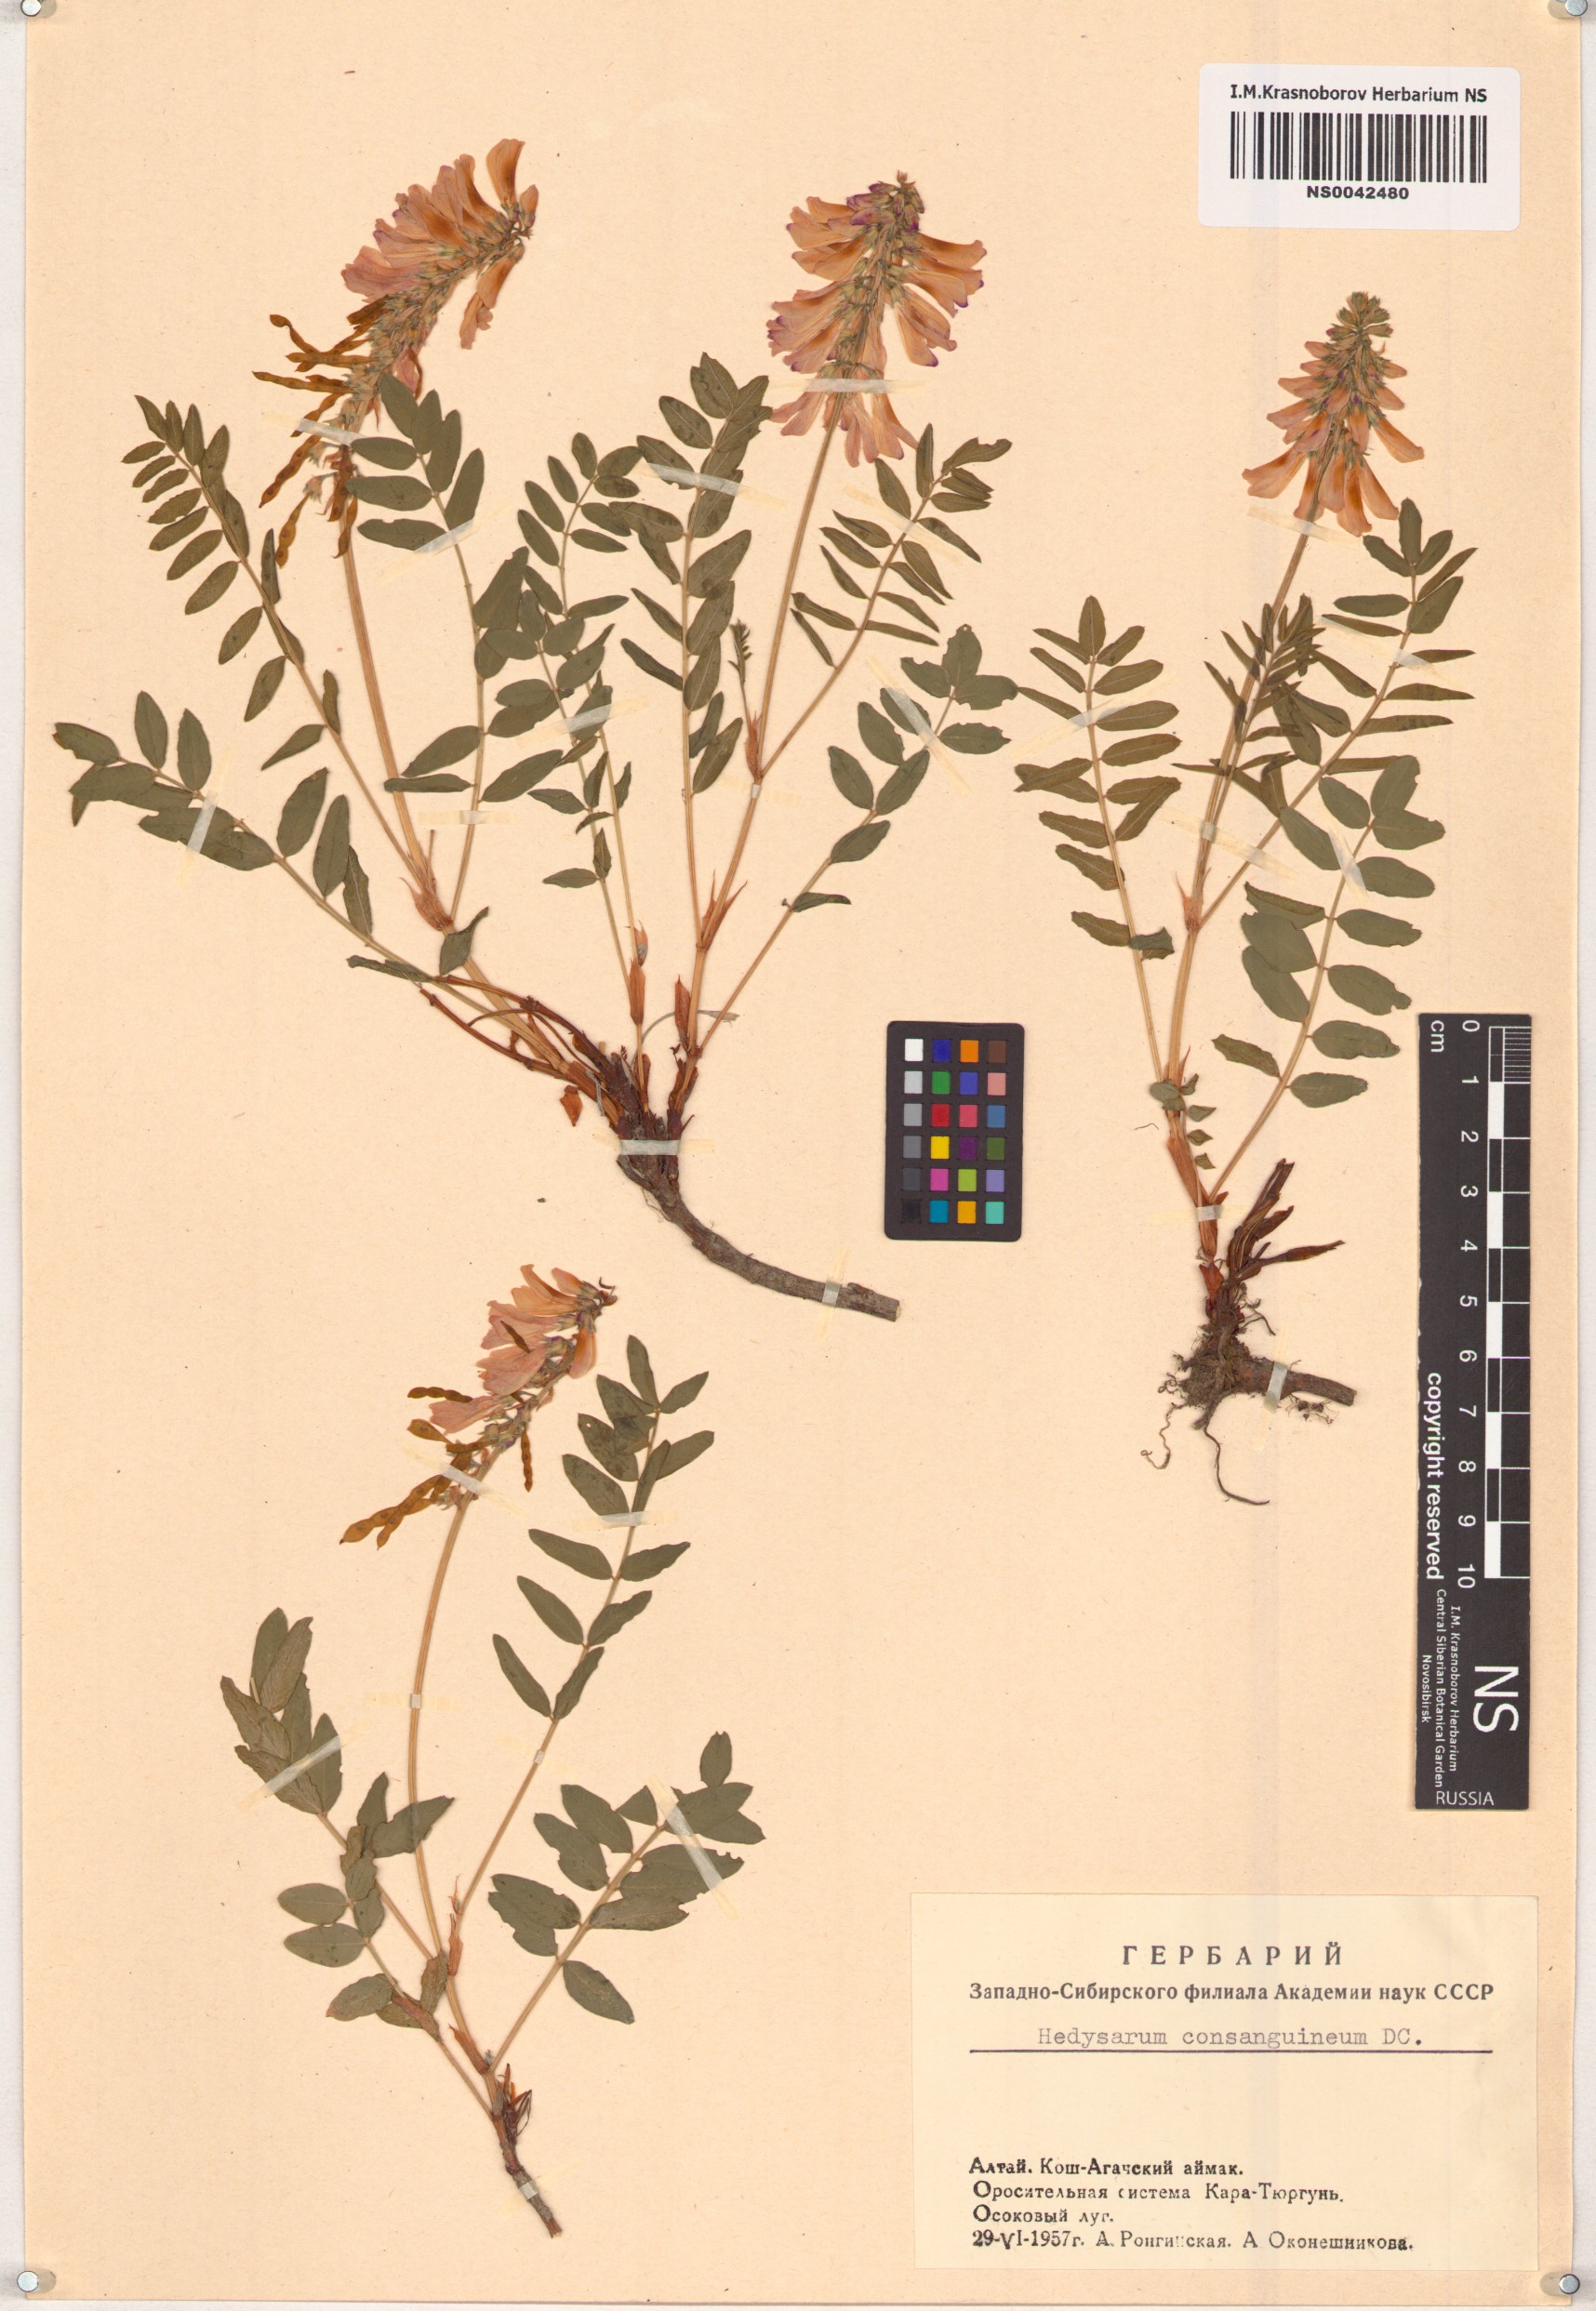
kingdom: Plantae
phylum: Tracheophyta
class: Magnoliopsida
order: Fabales
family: Fabaceae
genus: Hedysarum
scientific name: Hedysarum consanguineum
